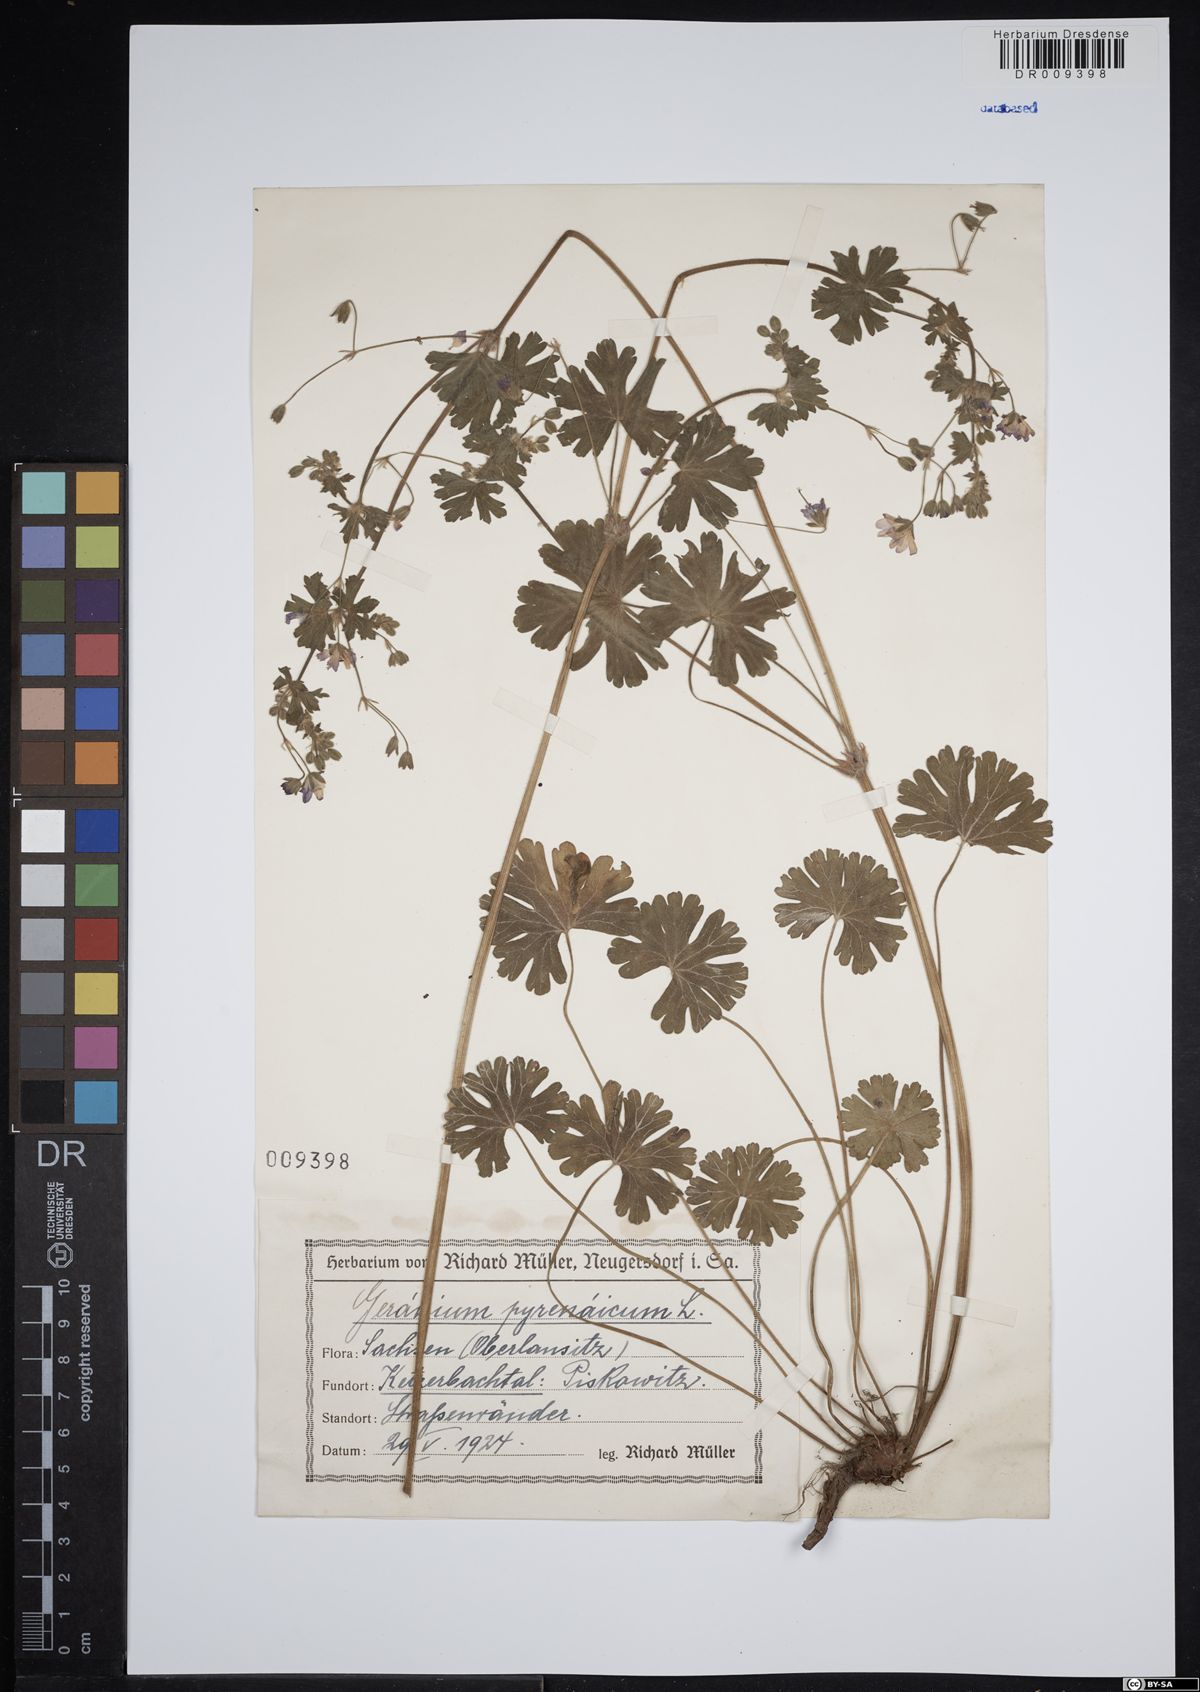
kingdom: Plantae
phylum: Tracheophyta
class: Magnoliopsida
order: Geraniales
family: Geraniaceae
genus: Geranium
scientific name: Geranium pyrenaicum
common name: Hedgerow crane's-bill
